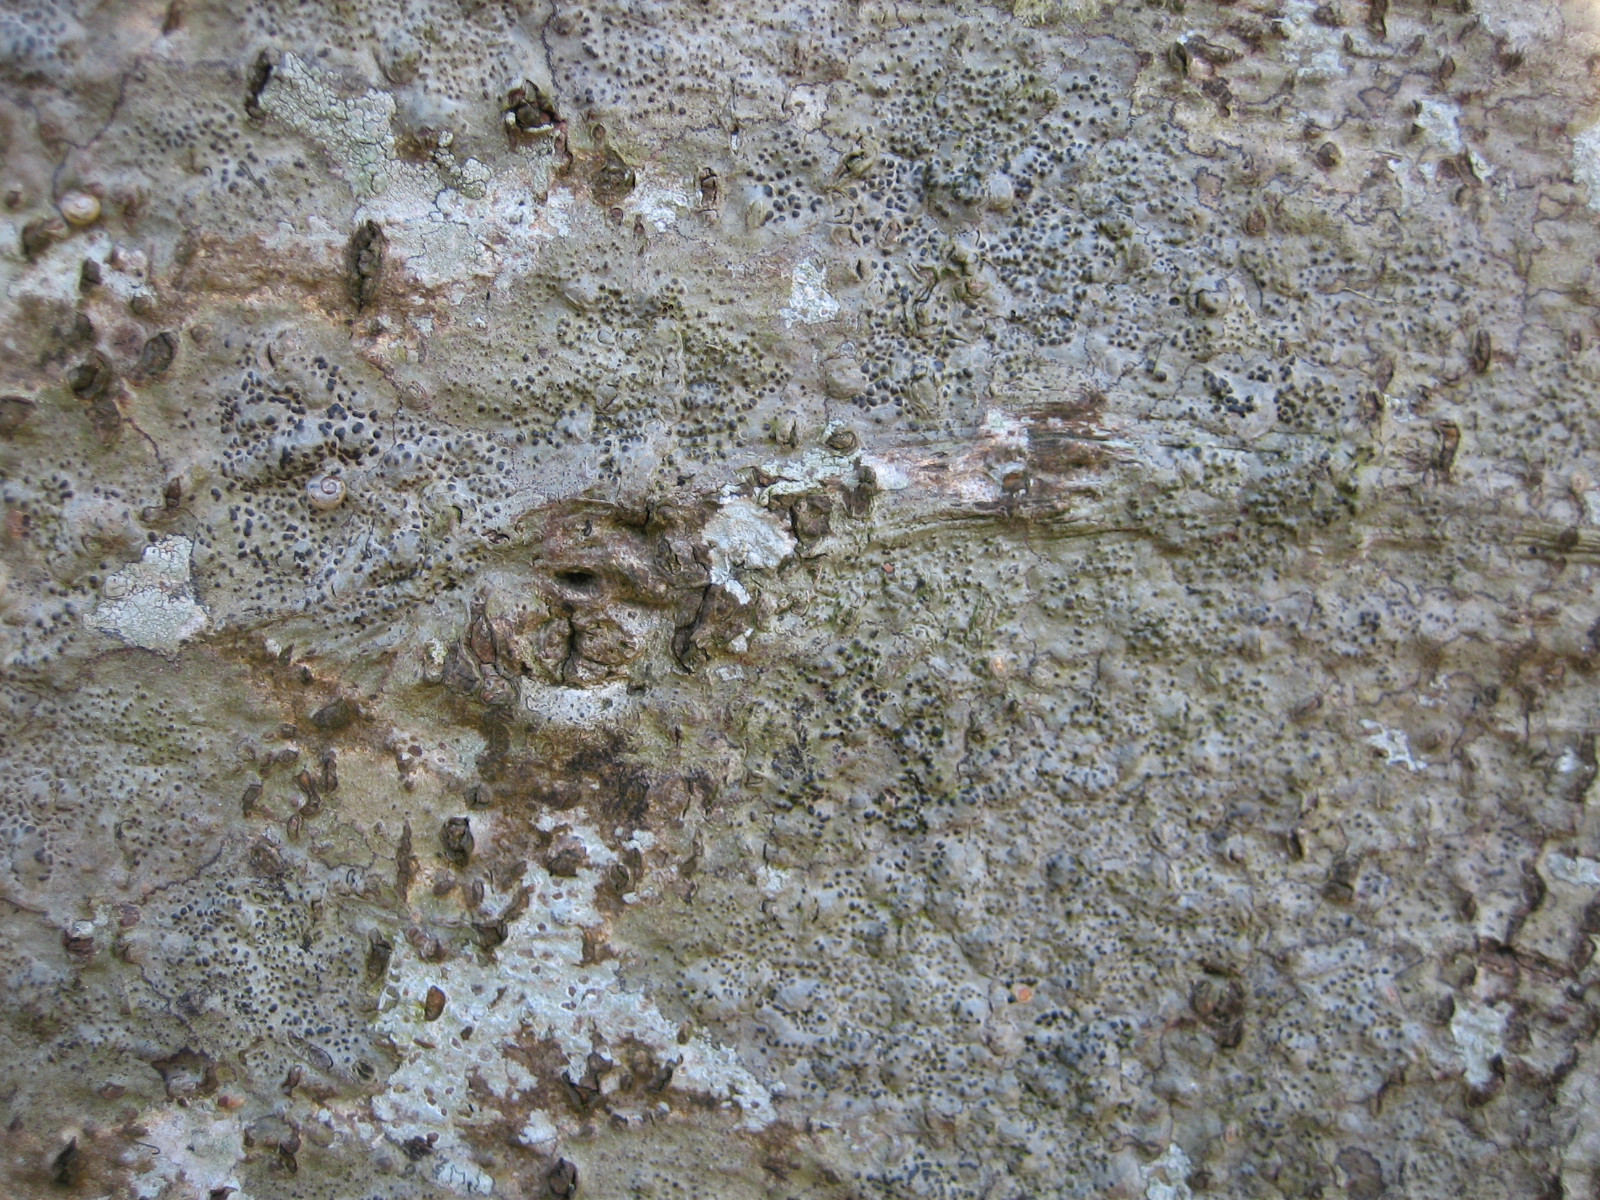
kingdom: Fungi
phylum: Ascomycota
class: Eurotiomycetes
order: Pyrenulales
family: Pyrenulaceae
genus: Pyrenula
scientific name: Pyrenula nitida
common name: glinsende kernelav
